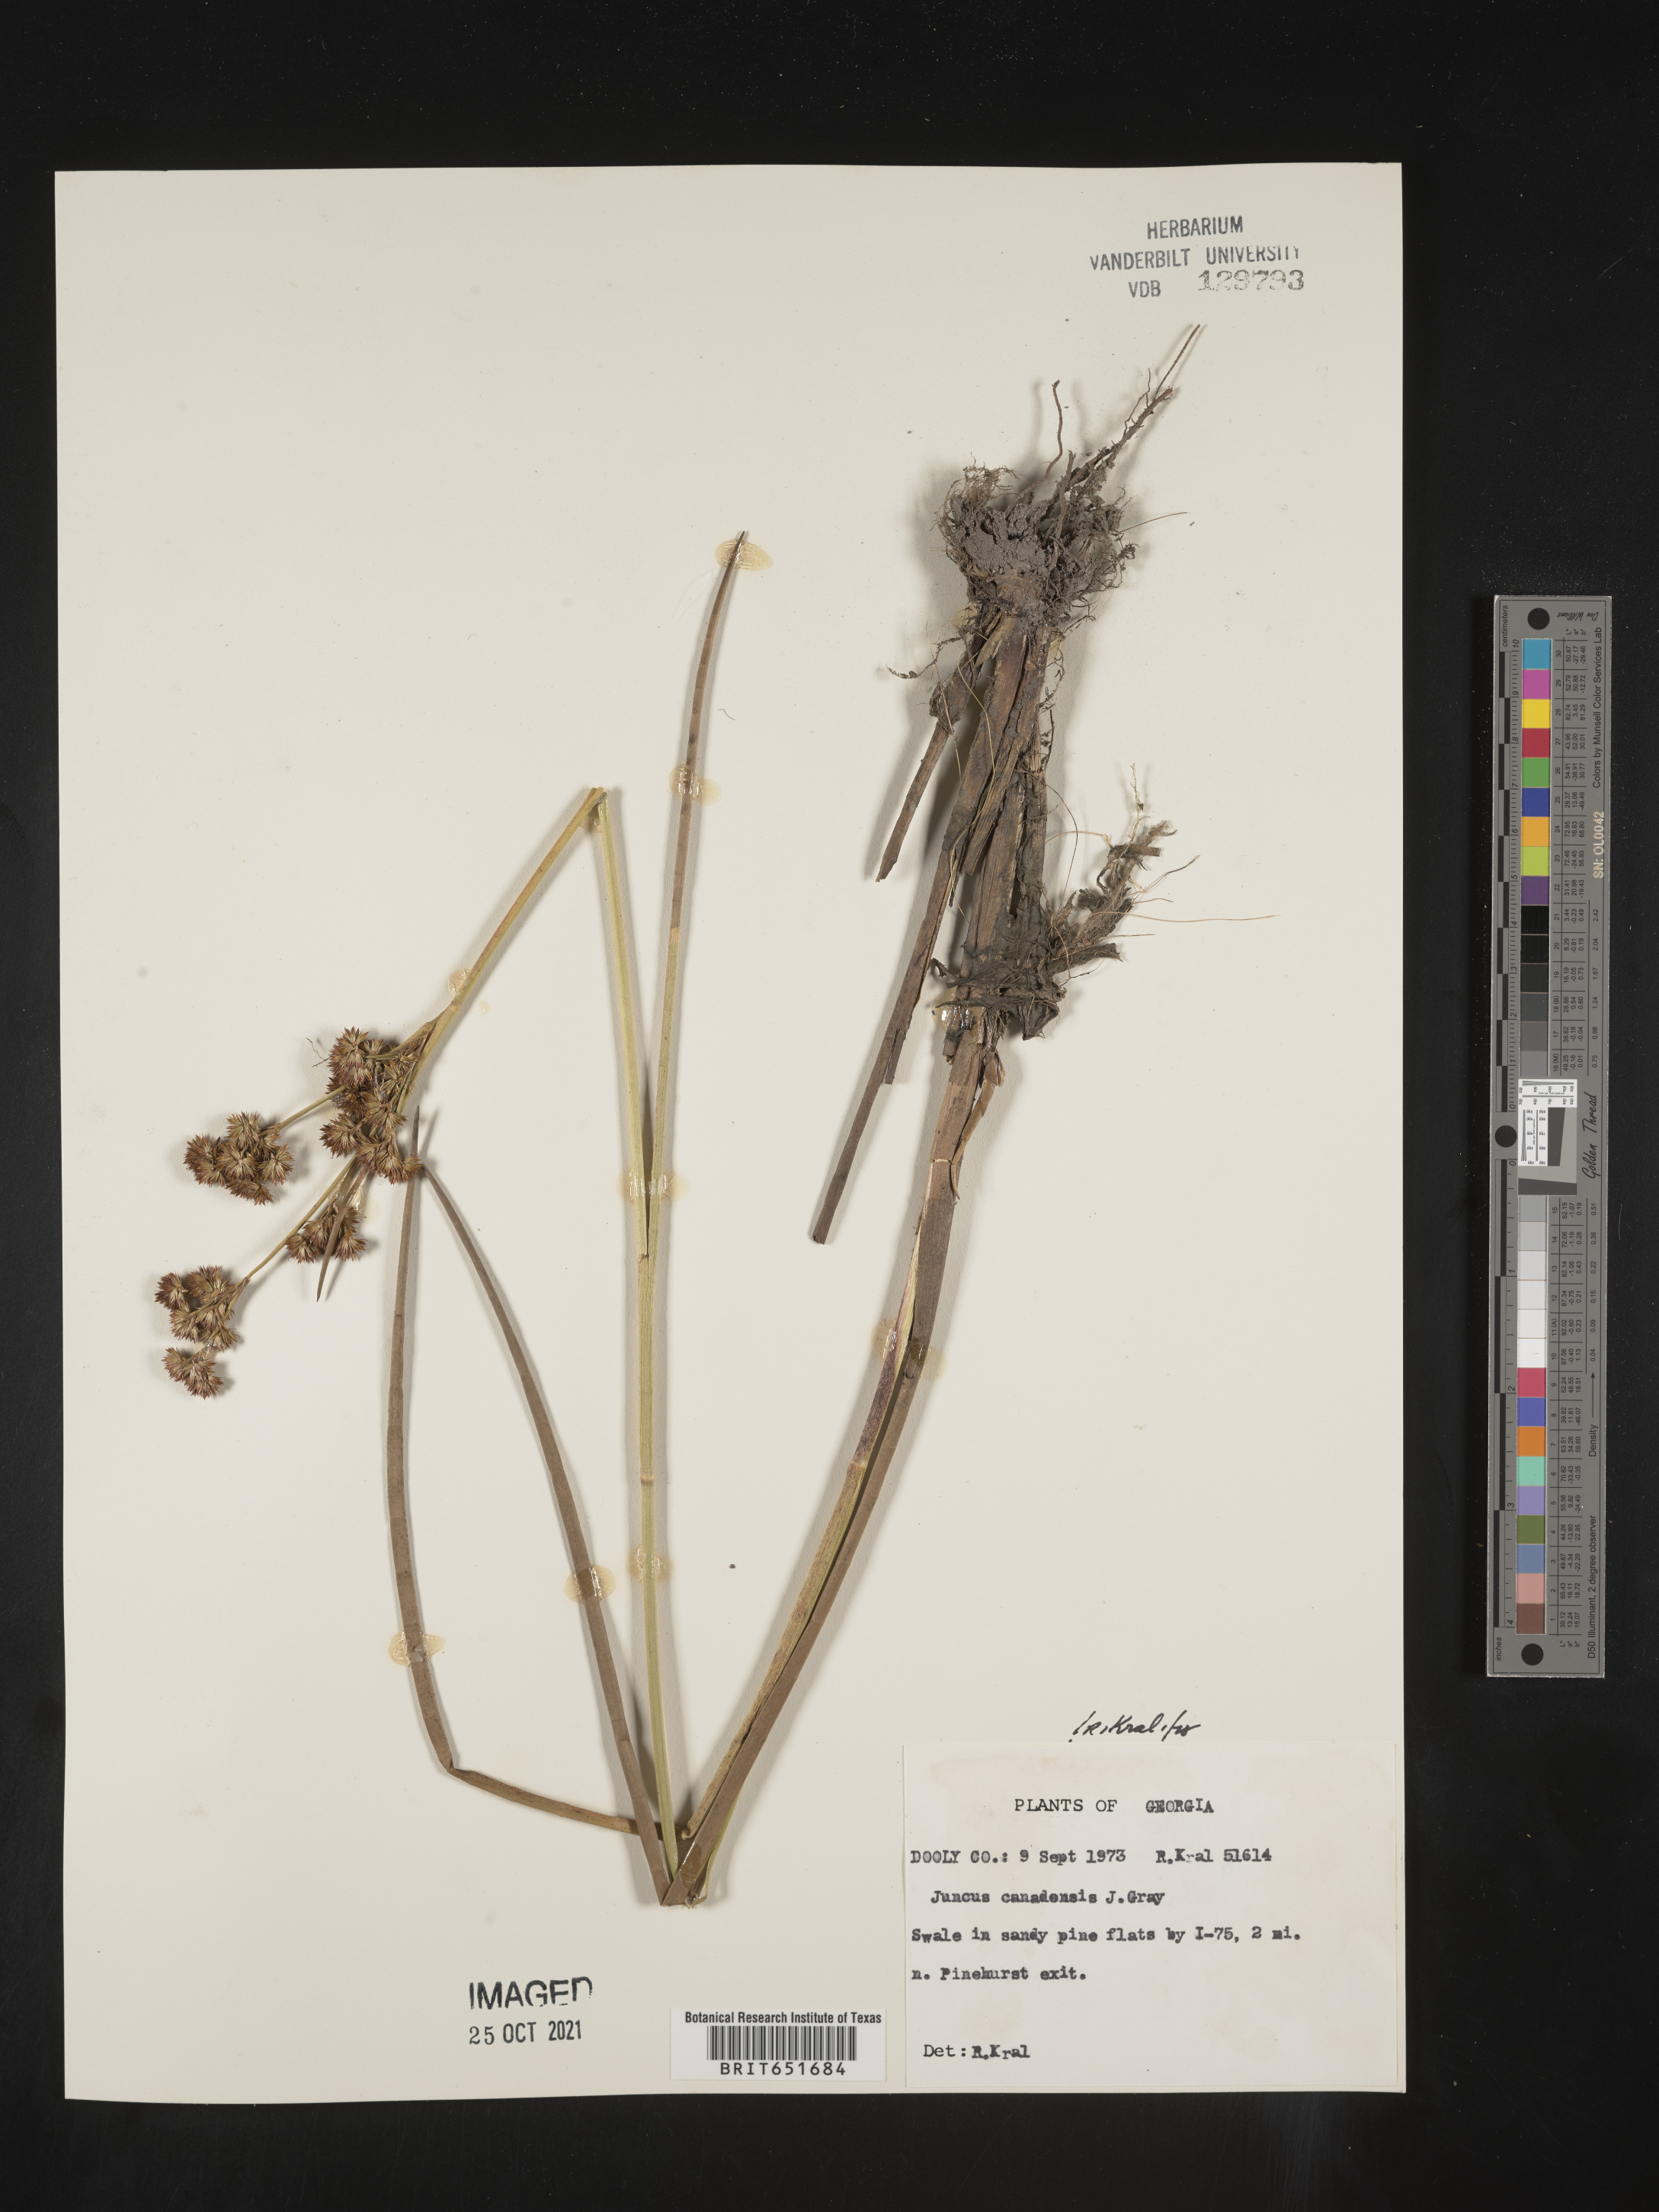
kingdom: Plantae
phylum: Tracheophyta
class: Liliopsida
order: Poales
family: Juncaceae
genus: Juncus
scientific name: Juncus canadensis
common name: Canada rush
